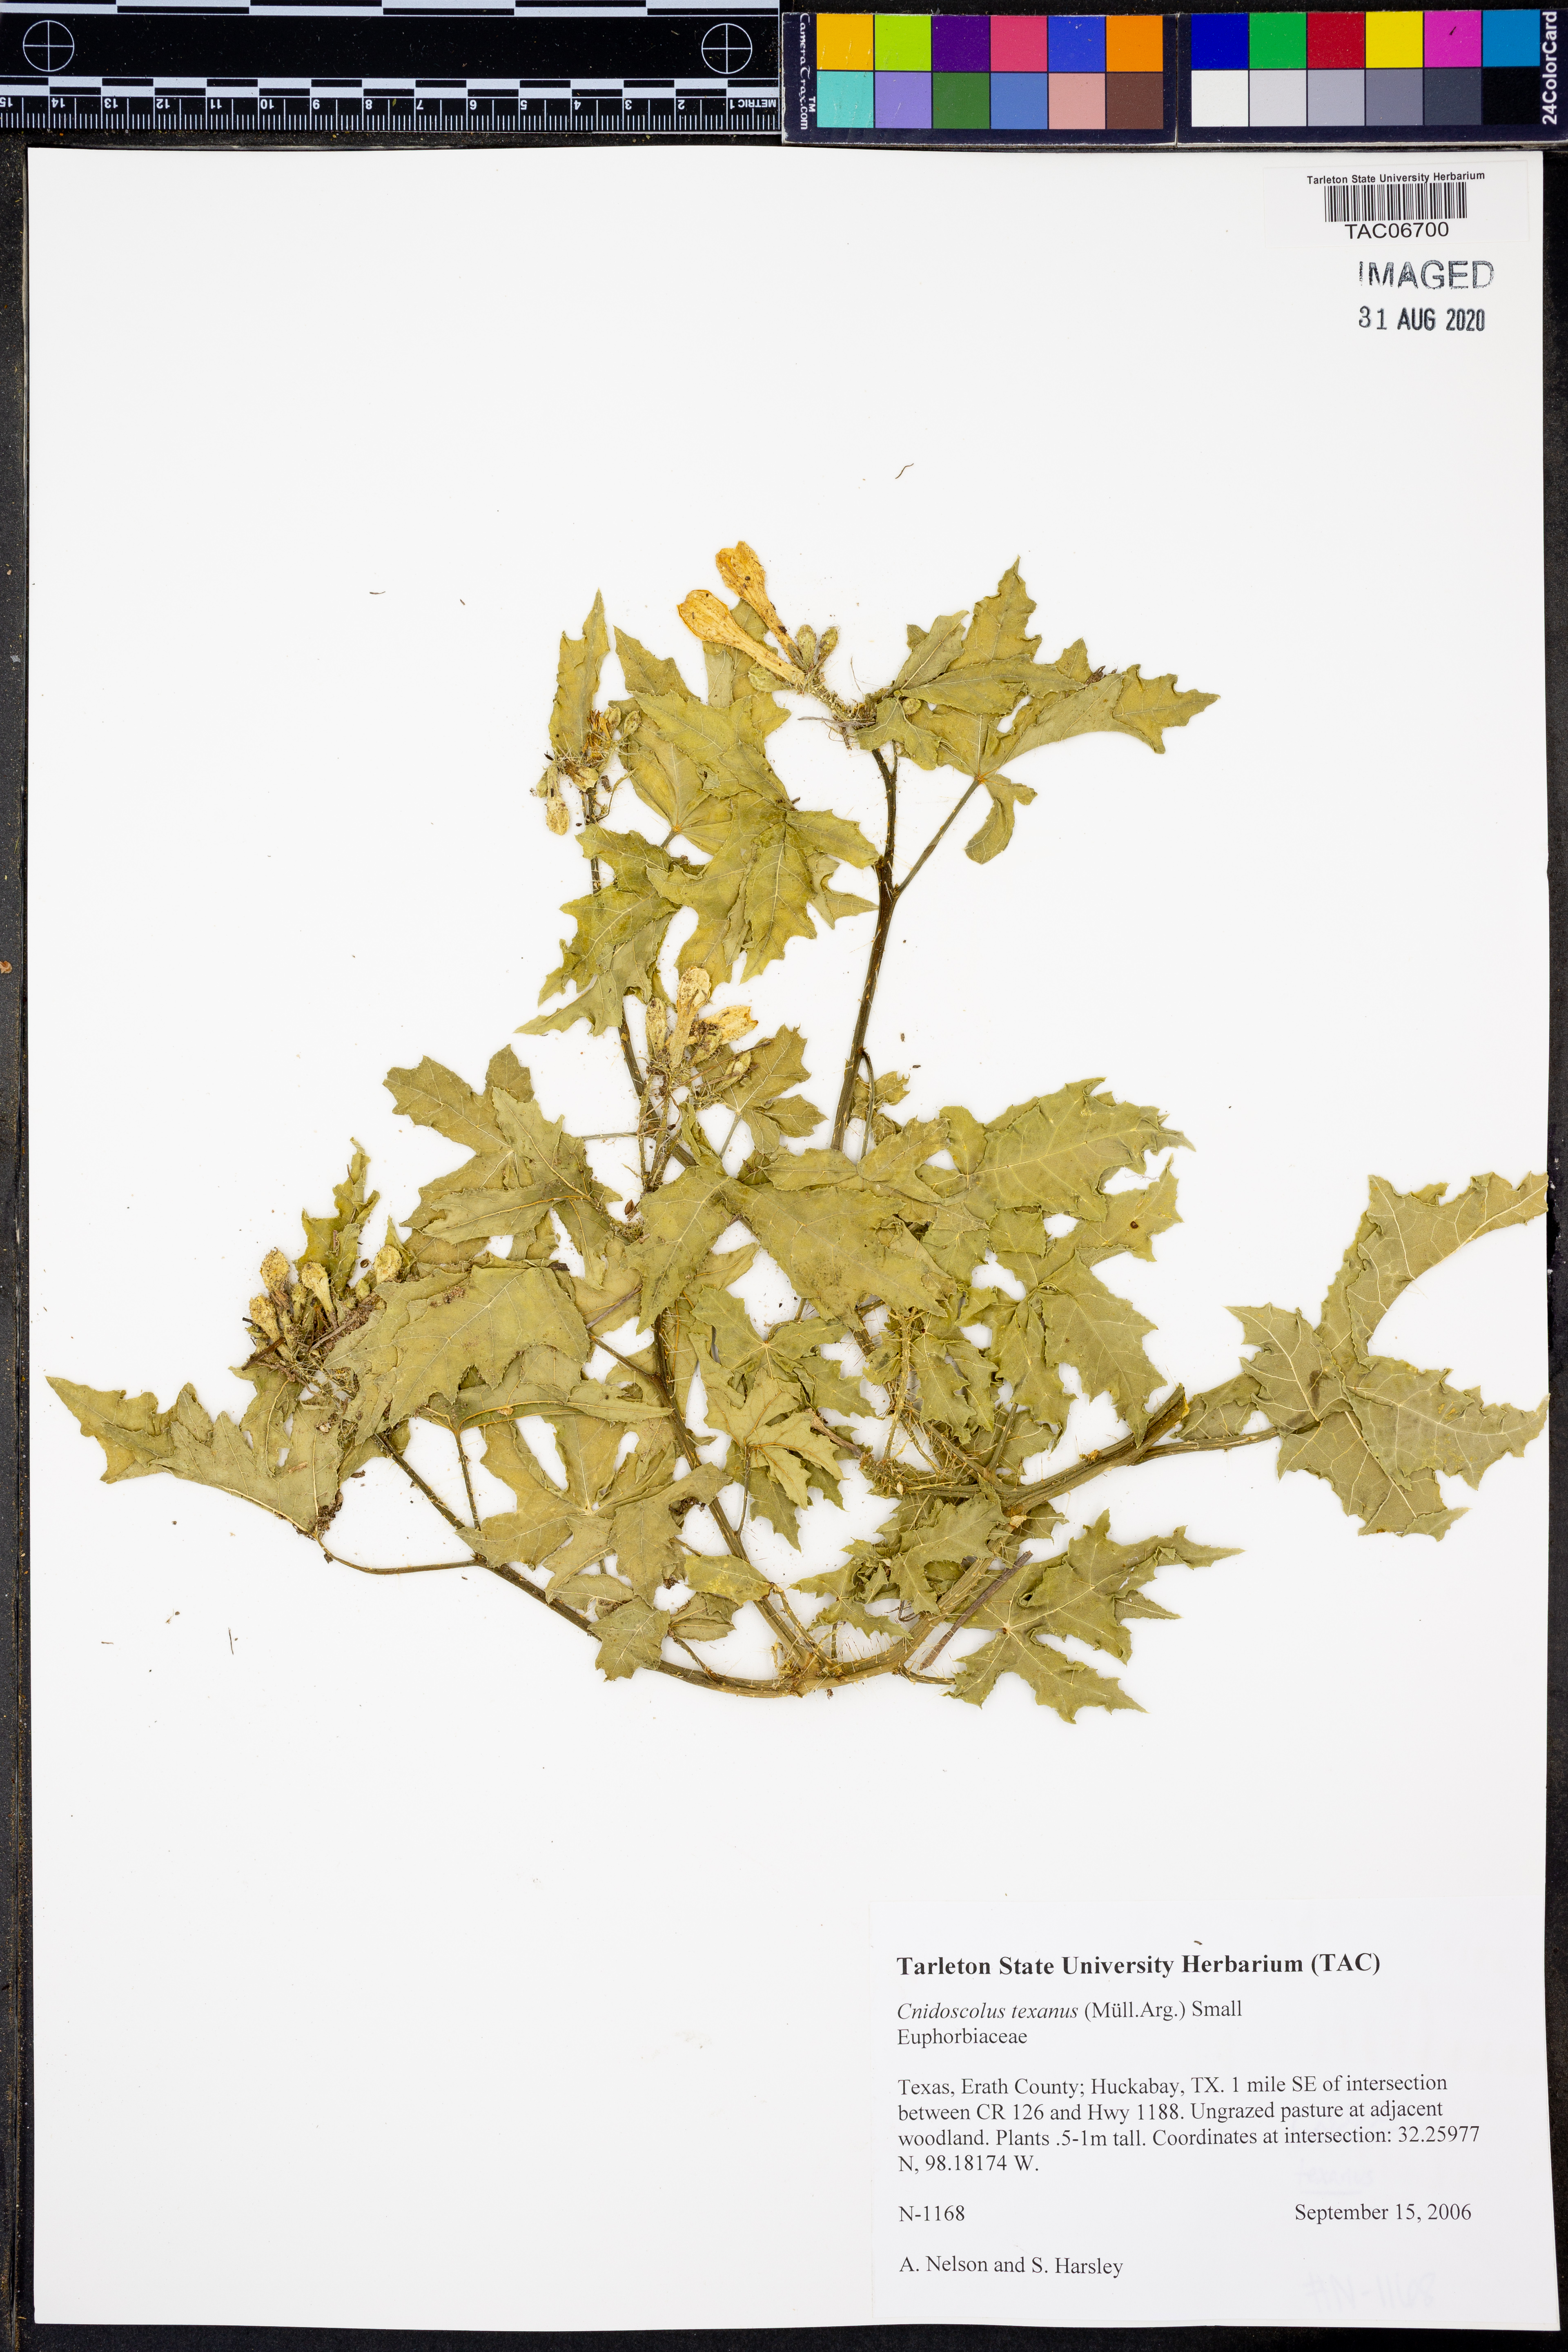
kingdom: Plantae
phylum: Tracheophyta
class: Magnoliopsida
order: Malpighiales
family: Euphorbiaceae
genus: Cnidoscolus
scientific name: Cnidoscolus texanus
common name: Texas bull-nettle
